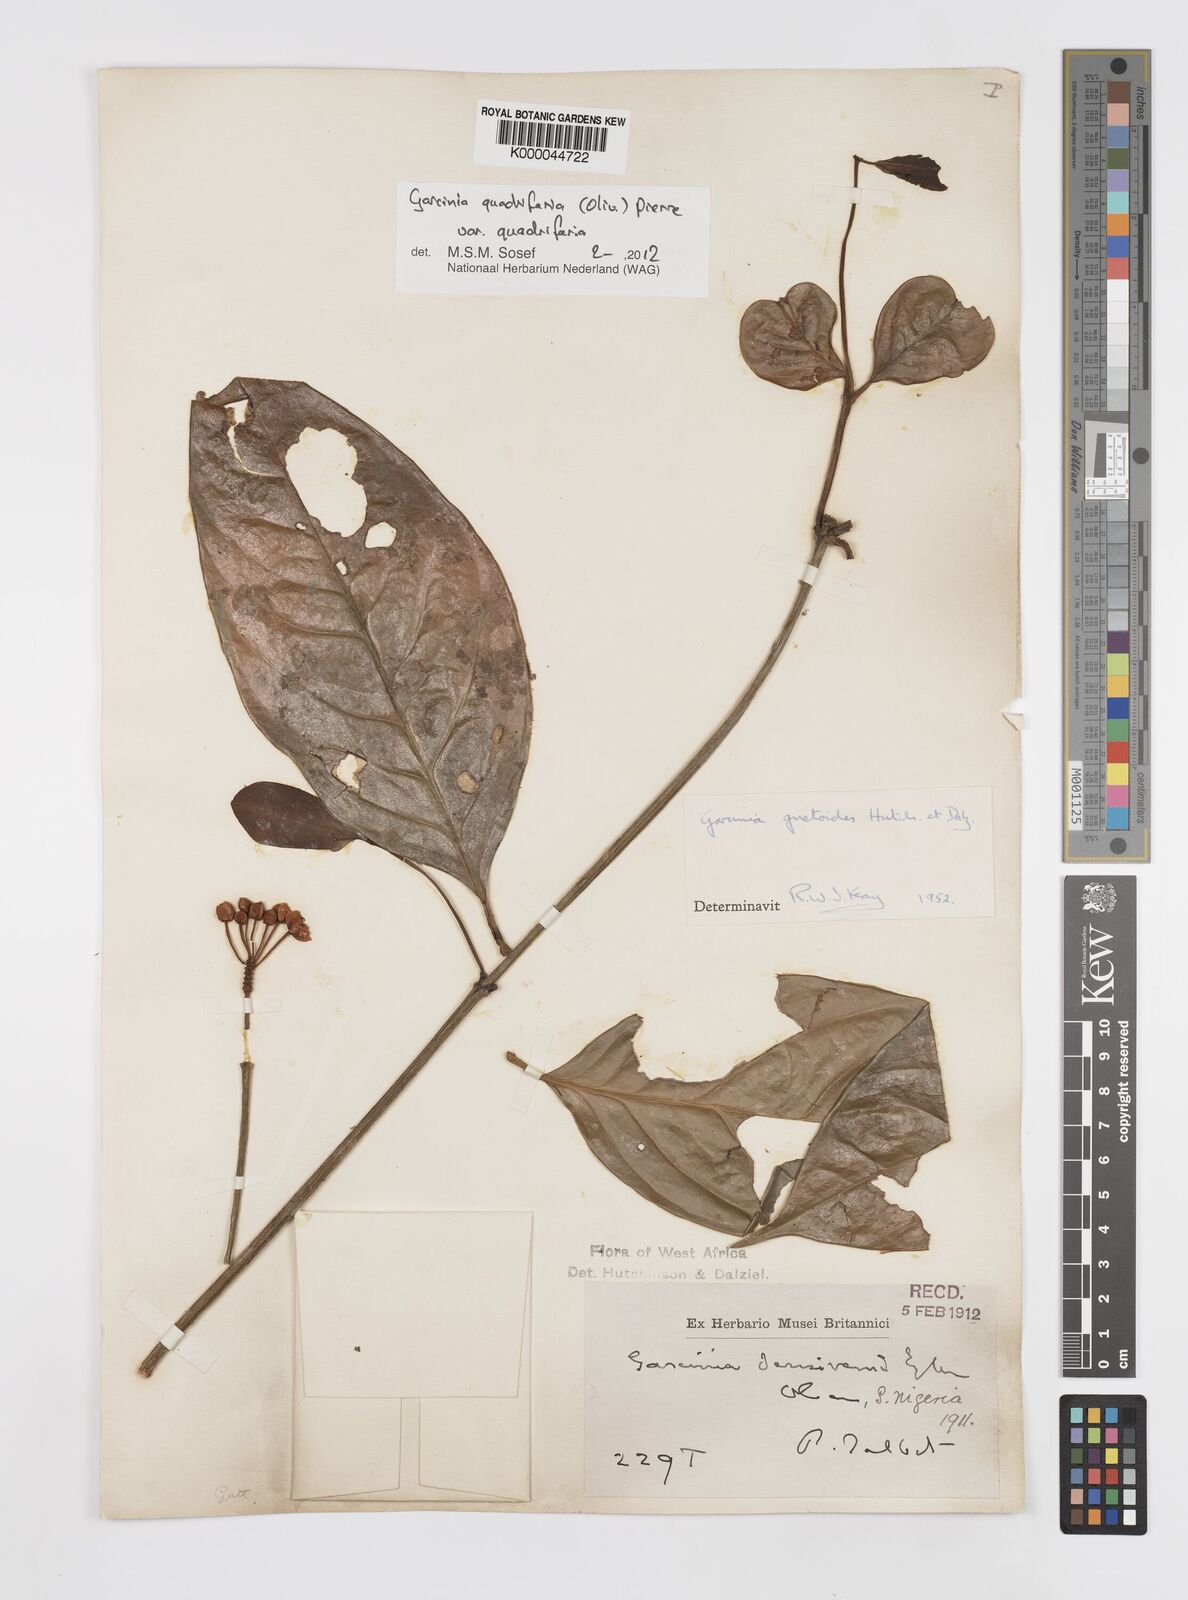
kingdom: Plantae
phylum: Tracheophyta
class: Magnoliopsida
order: Malpighiales
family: Clusiaceae
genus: Garcinia
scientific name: Garcinia gnetoides
